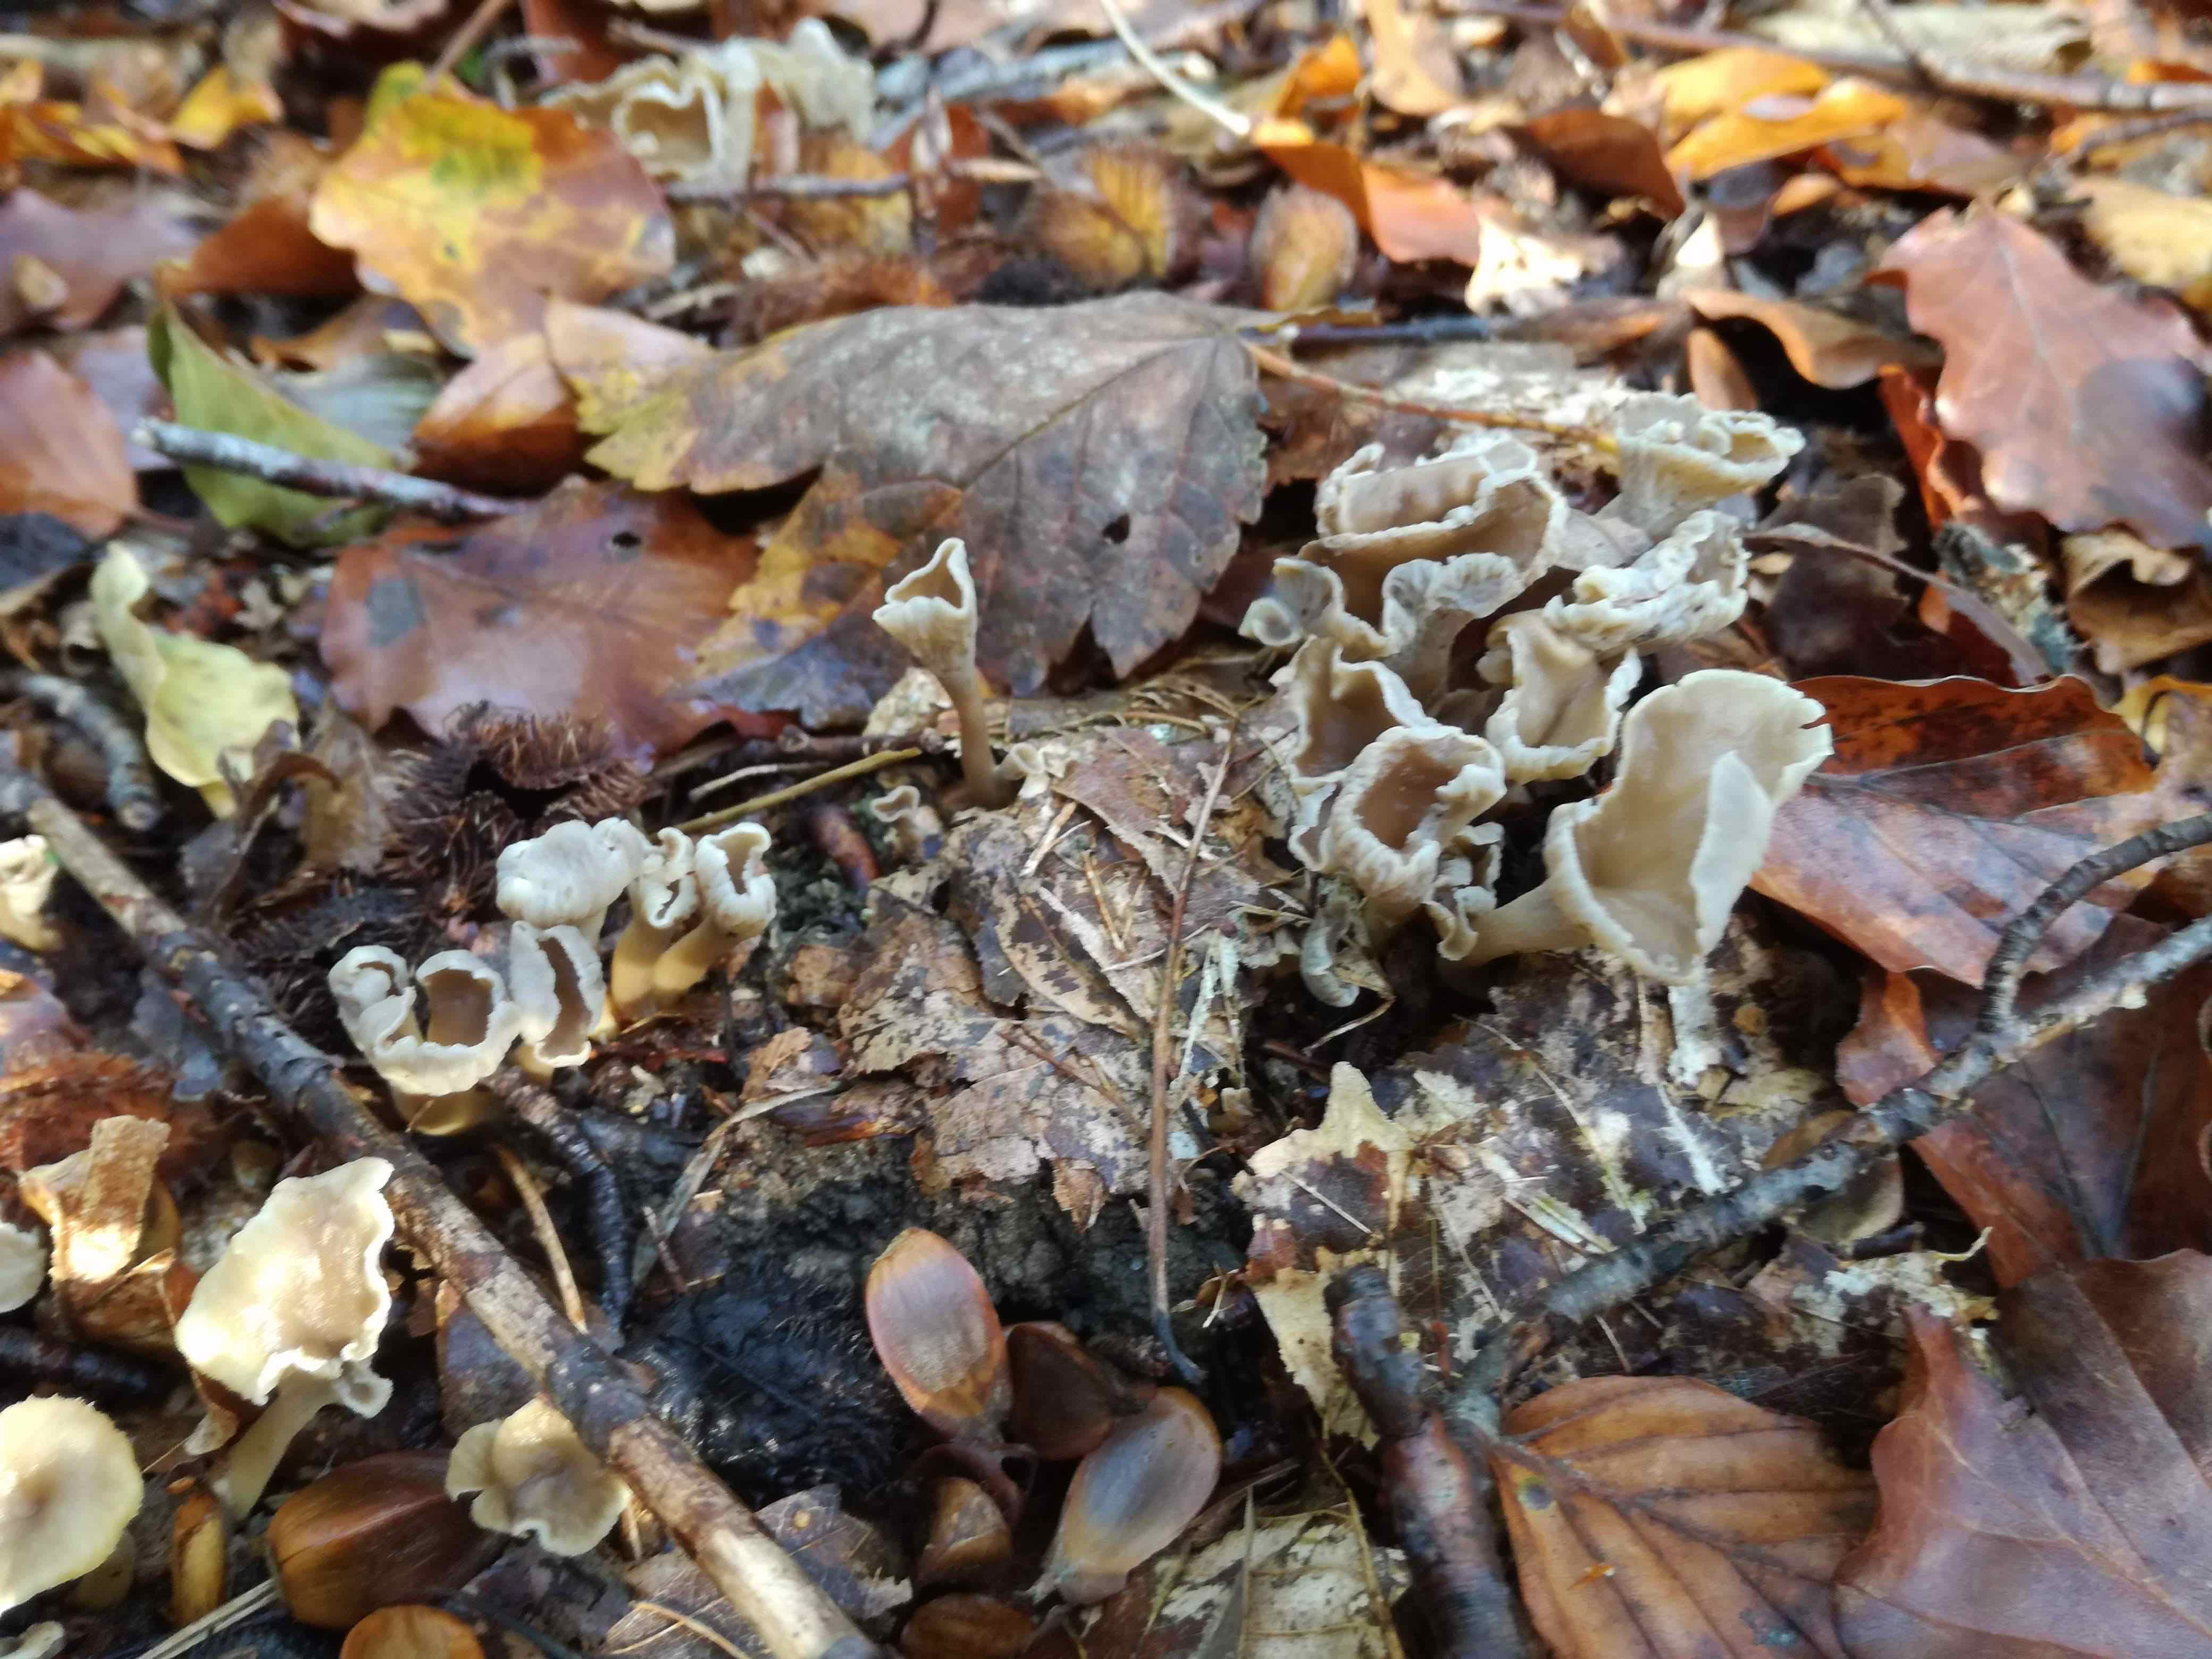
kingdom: Fungi
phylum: Basidiomycota
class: Agaricomycetes
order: Cantharellales
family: Hydnaceae
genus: Craterellus
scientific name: Craterellus undulatus
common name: liden kantarel
